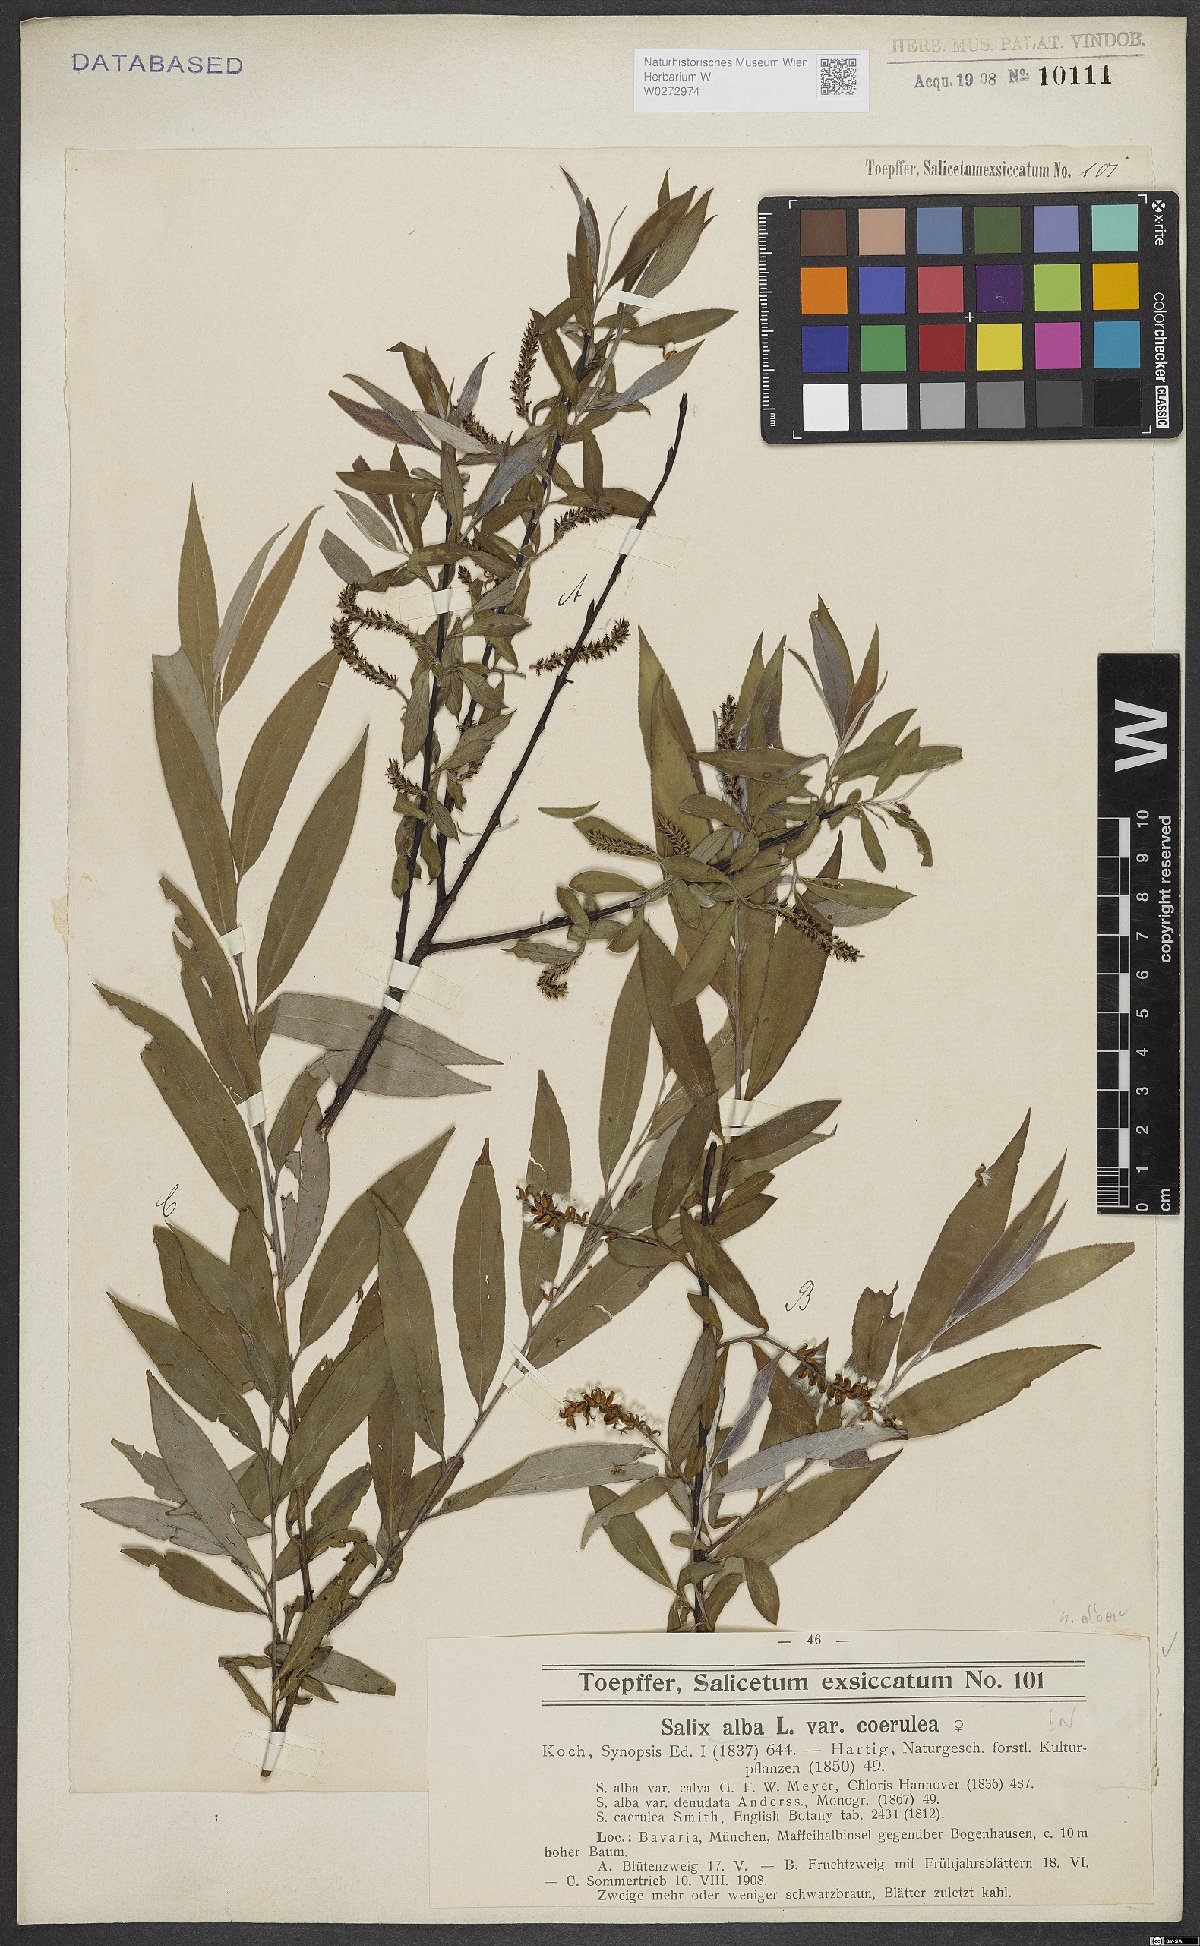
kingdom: Plantae
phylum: Tracheophyta
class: Magnoliopsida
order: Malpighiales
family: Salicaceae
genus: Salix
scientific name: Salix alba
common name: White willow
